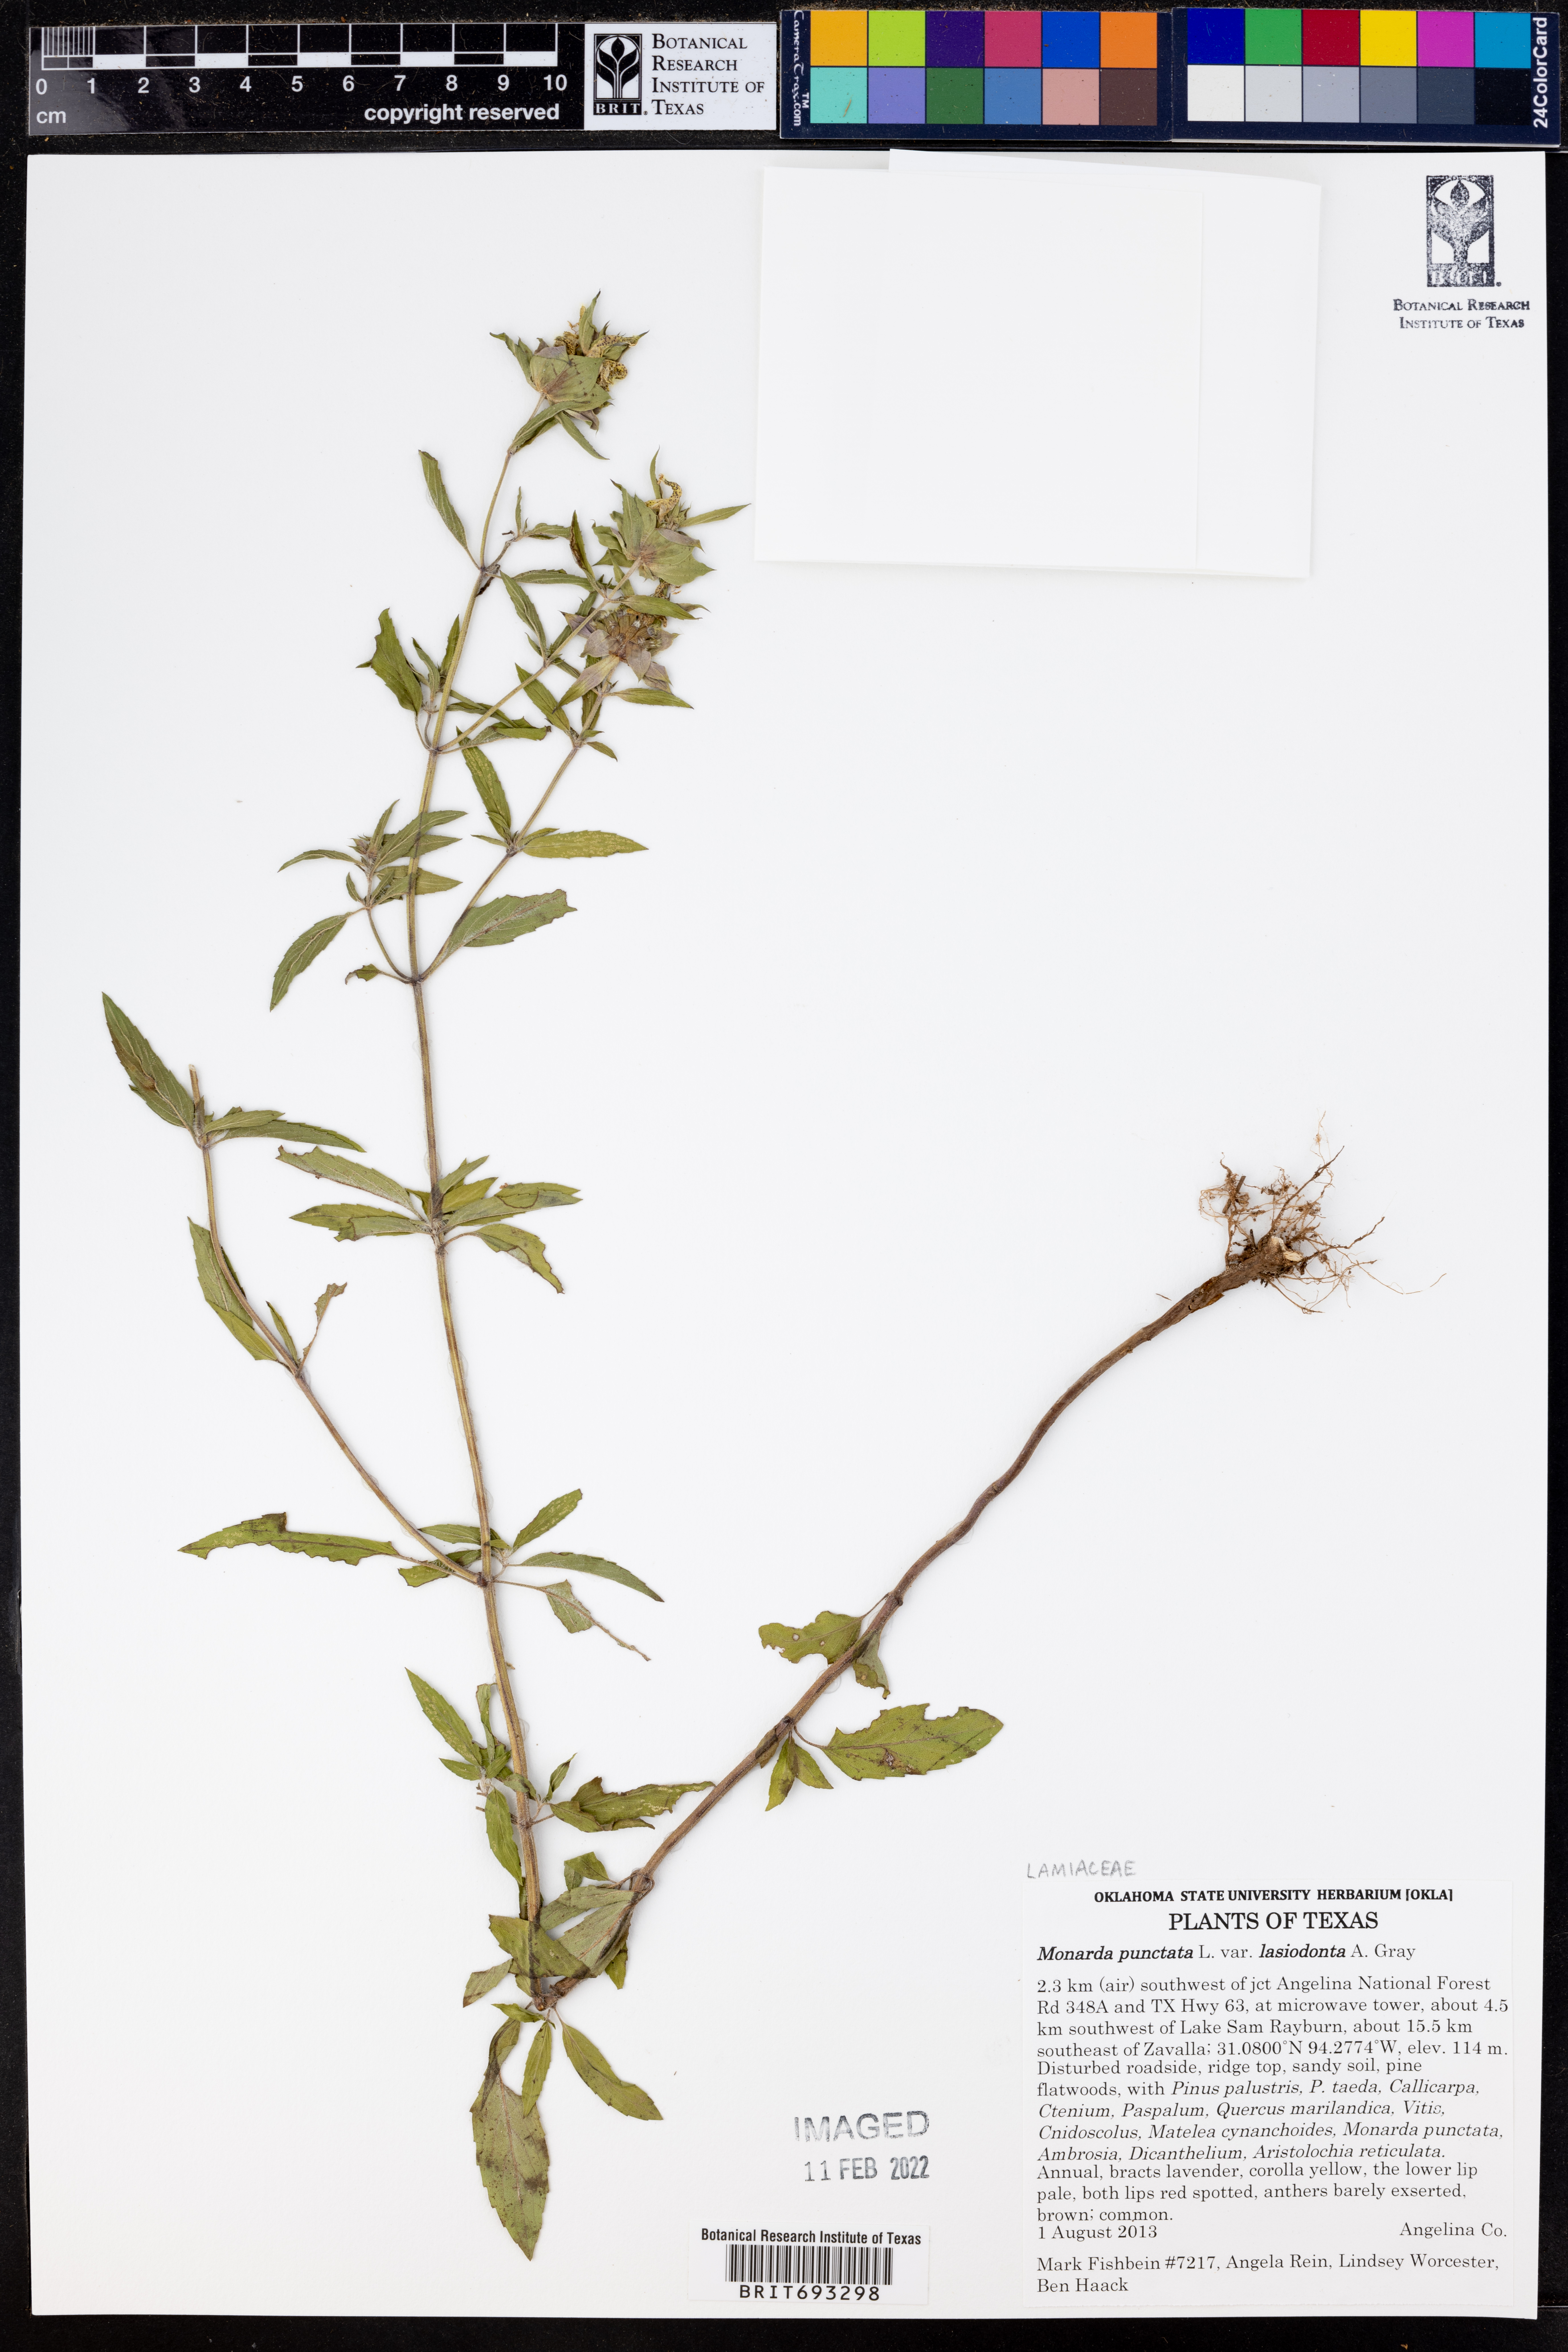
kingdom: Plantae
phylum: Tracheophyta
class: Magnoliopsida
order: Lamiales
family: Lamiaceae
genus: Monarda
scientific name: Monarda punctata
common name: Dotted monarda
